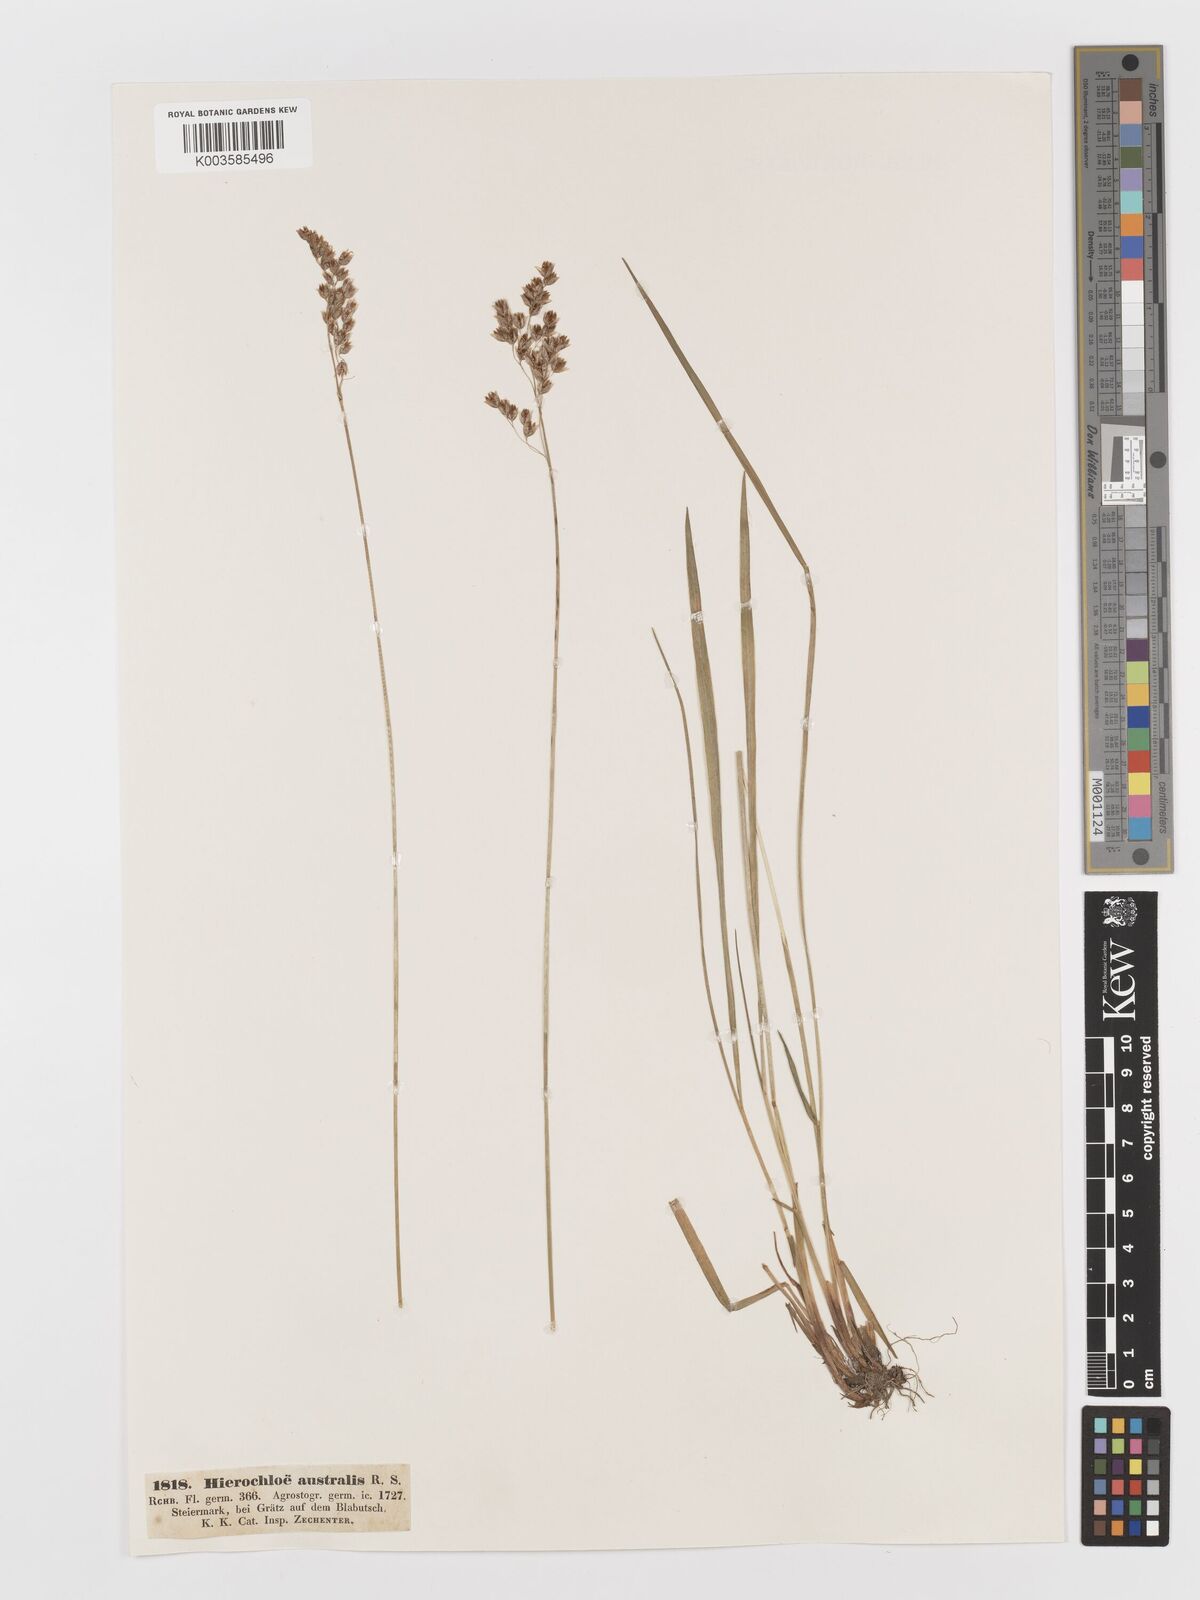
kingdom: Plantae
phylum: Tracheophyta
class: Liliopsida
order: Poales
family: Poaceae
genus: Anthoxanthum
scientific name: Anthoxanthum australe
